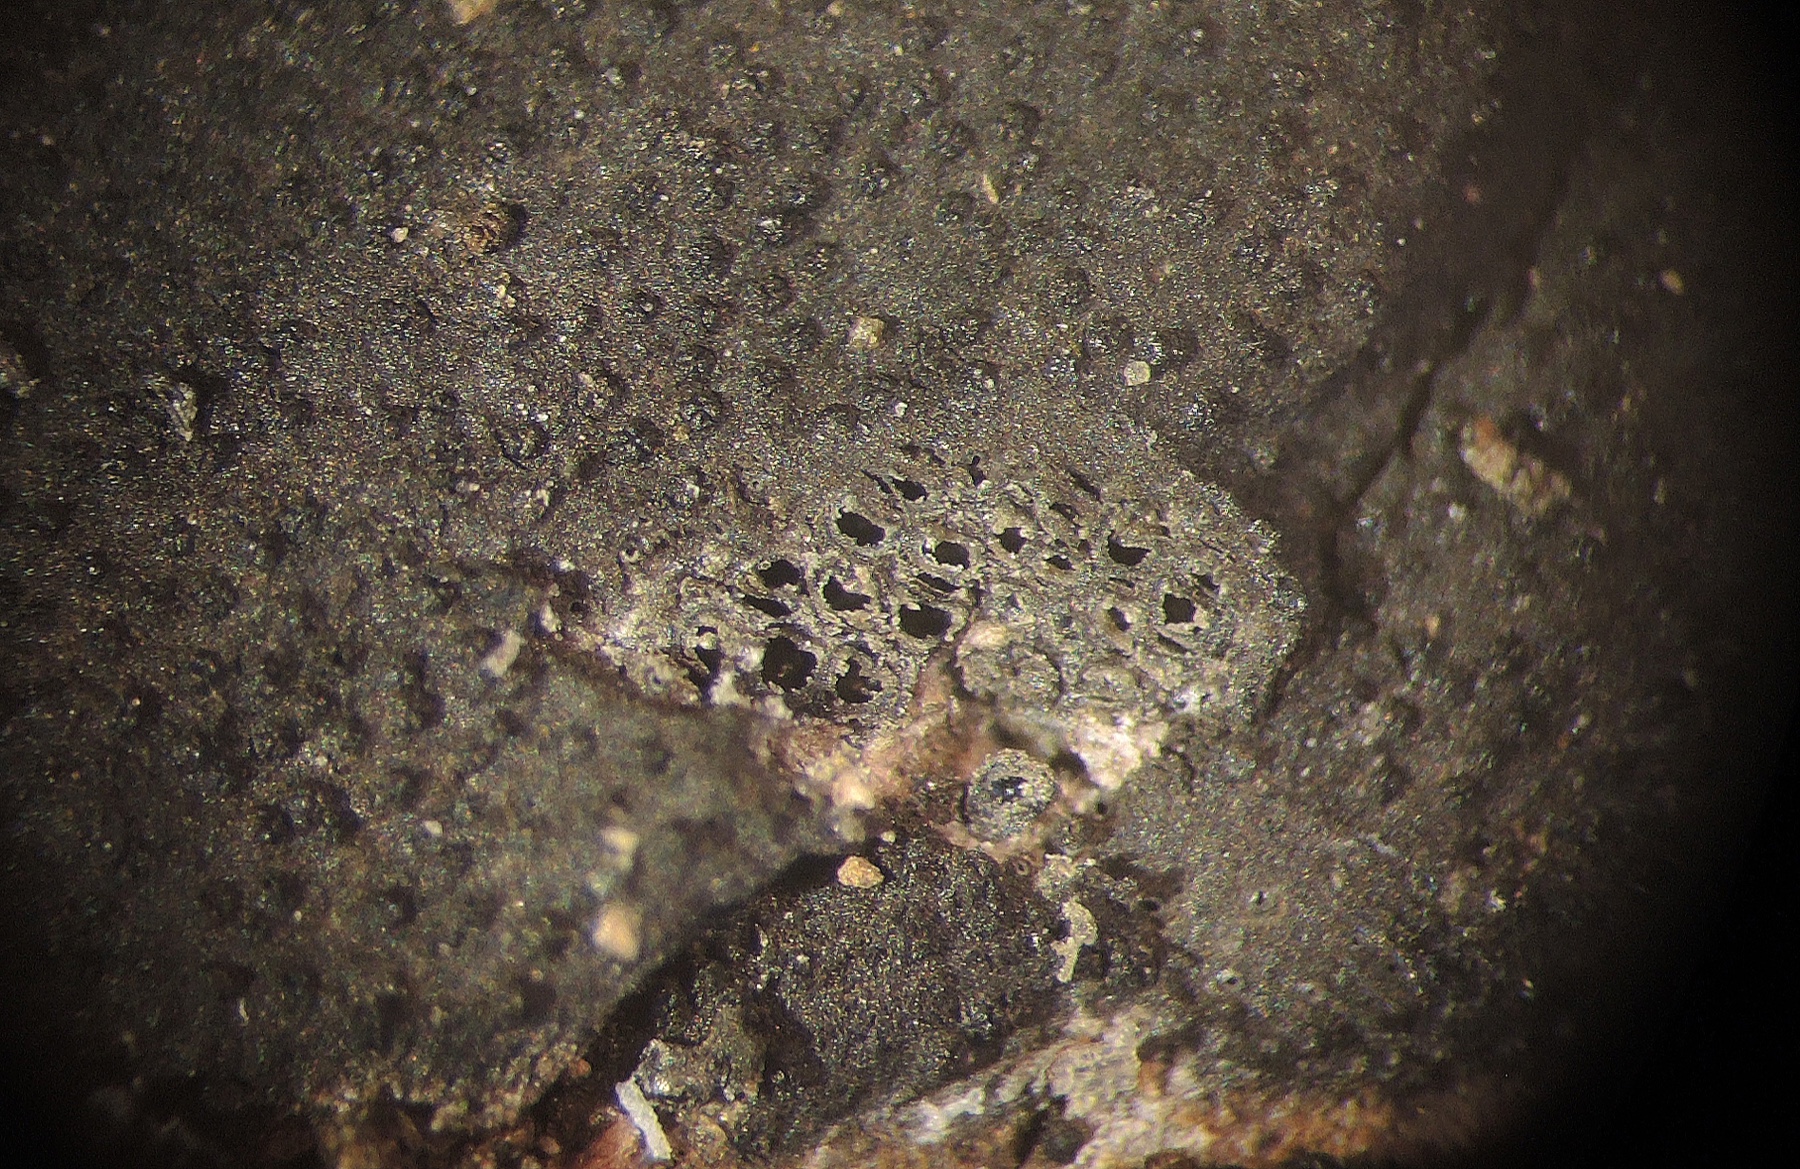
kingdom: Fungi
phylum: Ascomycota
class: Sordariomycetes
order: Xylariales
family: Diatrypaceae
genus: Diatrype
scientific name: Diatrype
